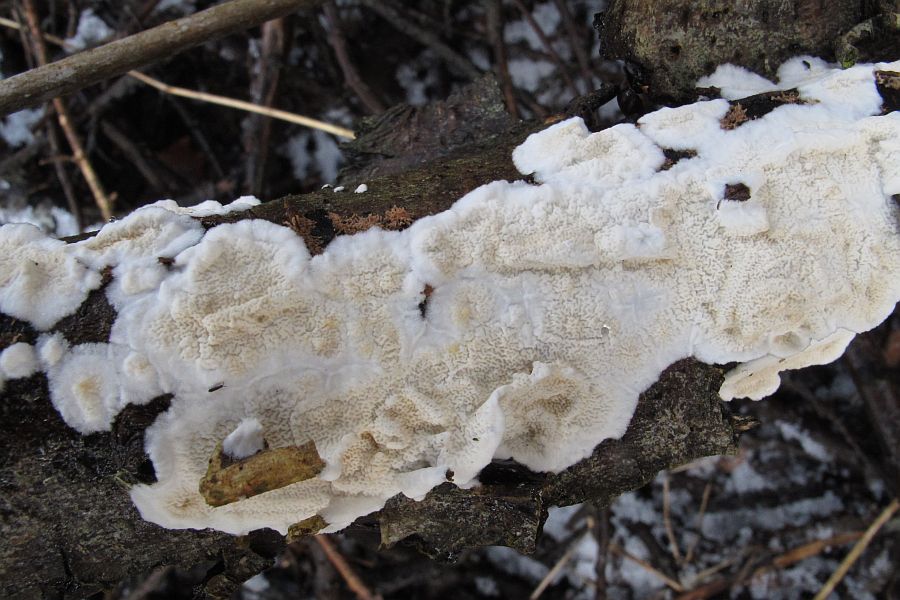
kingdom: Fungi
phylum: Basidiomycota
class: Agaricomycetes
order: Polyporales
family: Irpicaceae
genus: Byssomerulius
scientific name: Byssomerulius corium
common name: læder-åresvamp
